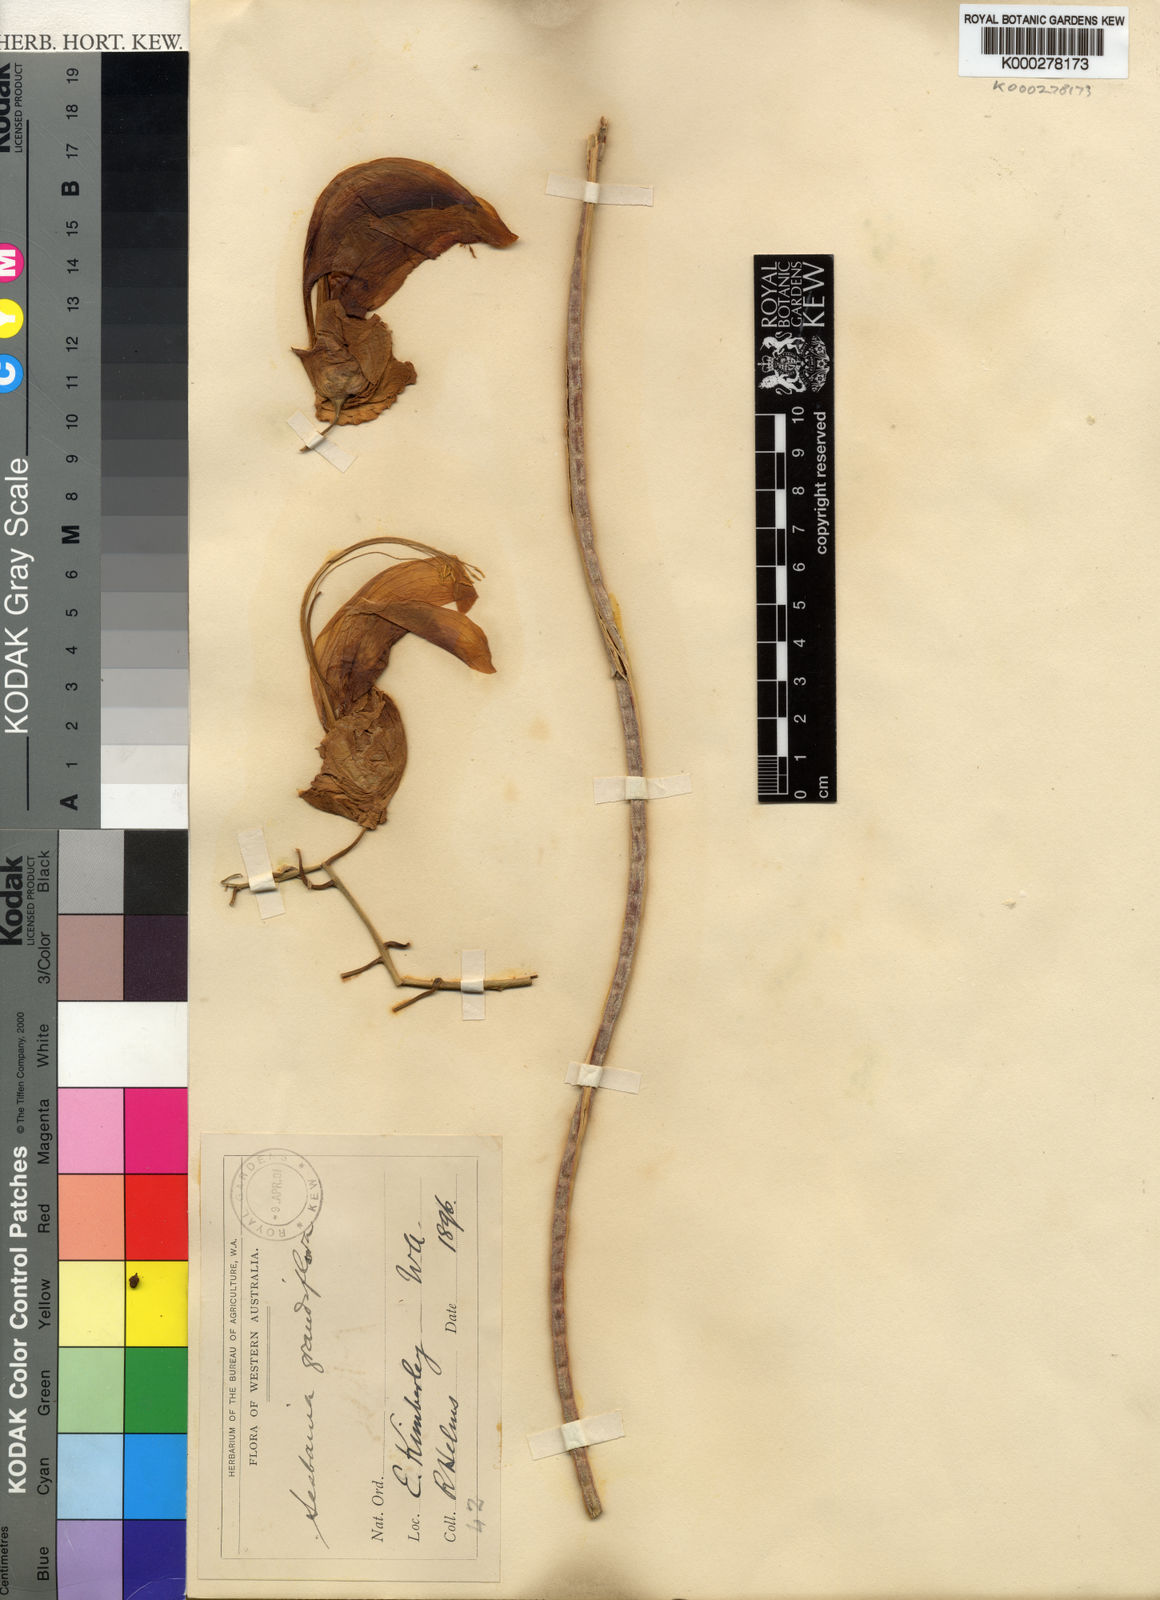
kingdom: Plantae
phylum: Tracheophyta
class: Magnoliopsida
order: Fabales
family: Fabaceae
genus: Sesbania
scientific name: Sesbania
